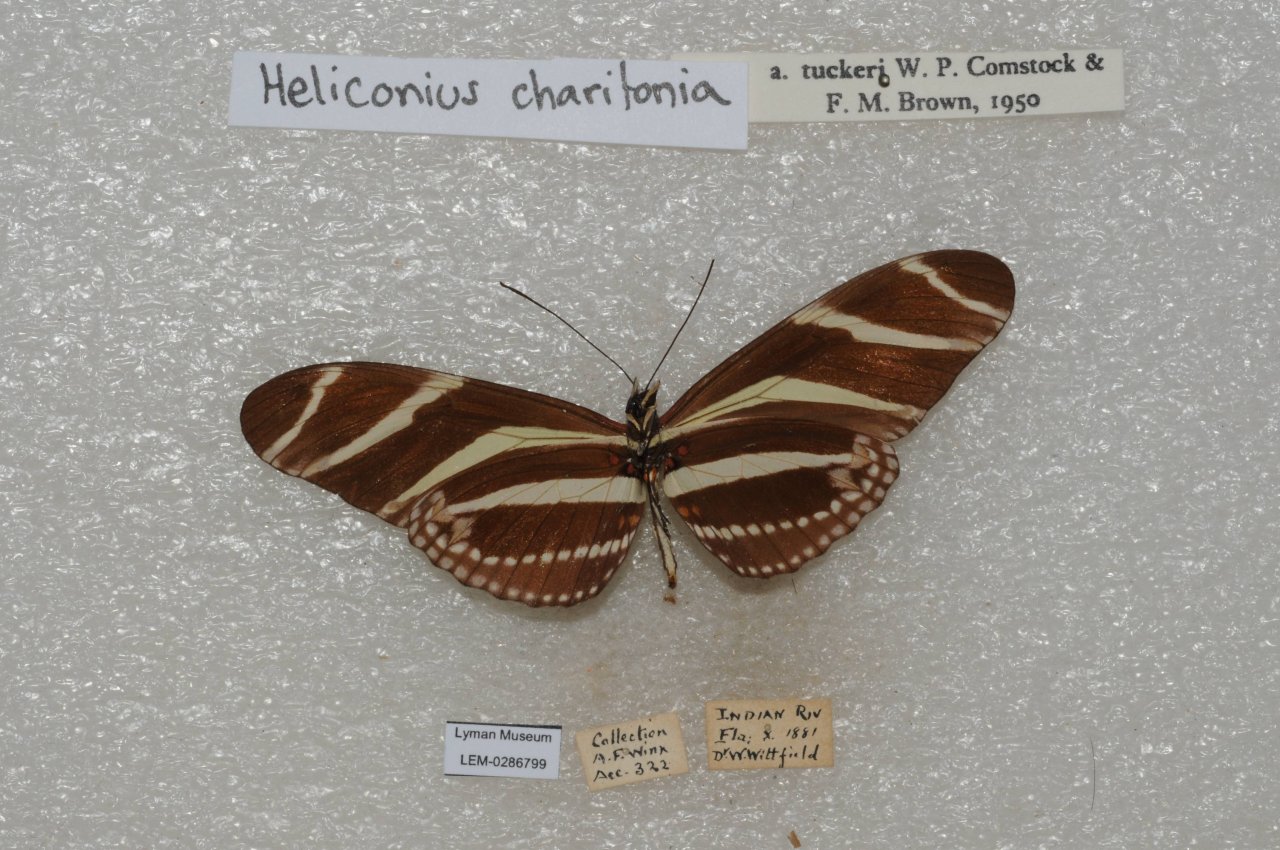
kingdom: Animalia
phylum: Arthropoda
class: Insecta
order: Lepidoptera
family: Nymphalidae
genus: Heliconius
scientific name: Heliconius charithonia
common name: Zebra Longwing
